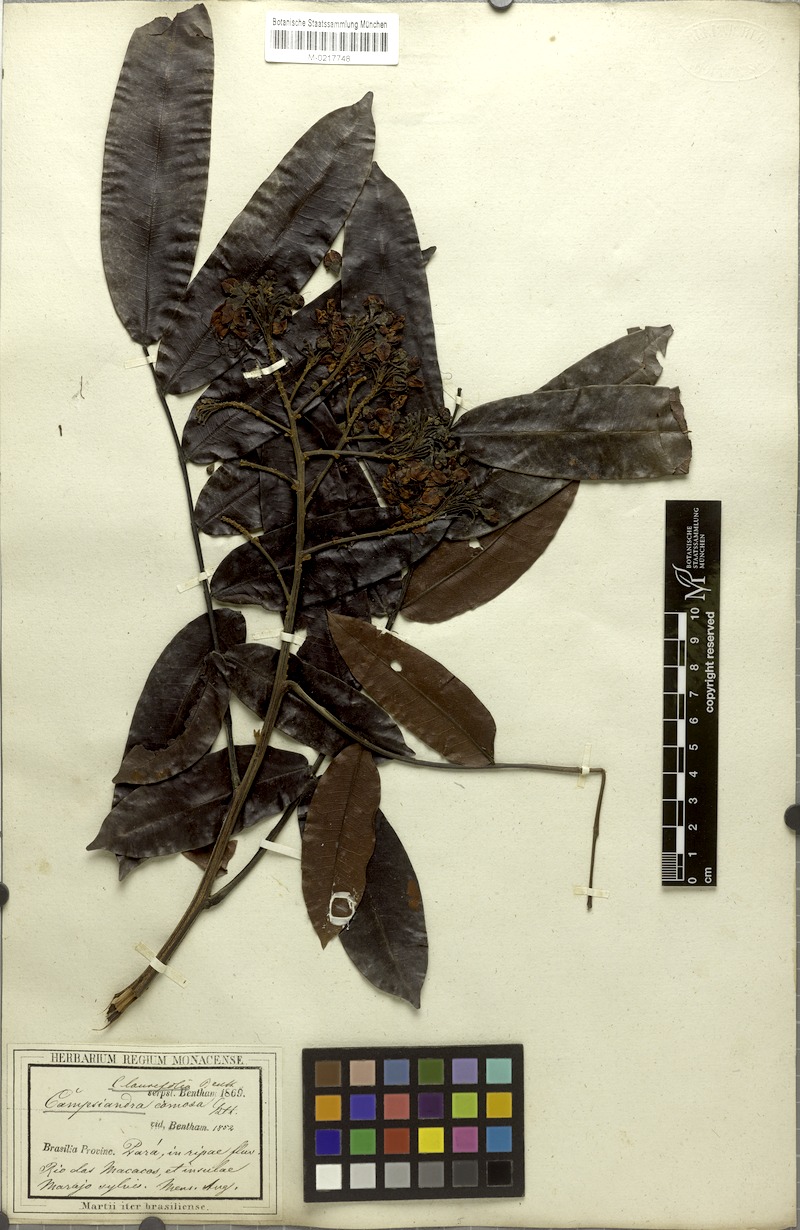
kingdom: Plantae
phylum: Tracheophyta
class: Magnoliopsida
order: Fabales
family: Fabaceae
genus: Campsiandra
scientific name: Campsiandra laurifolia
